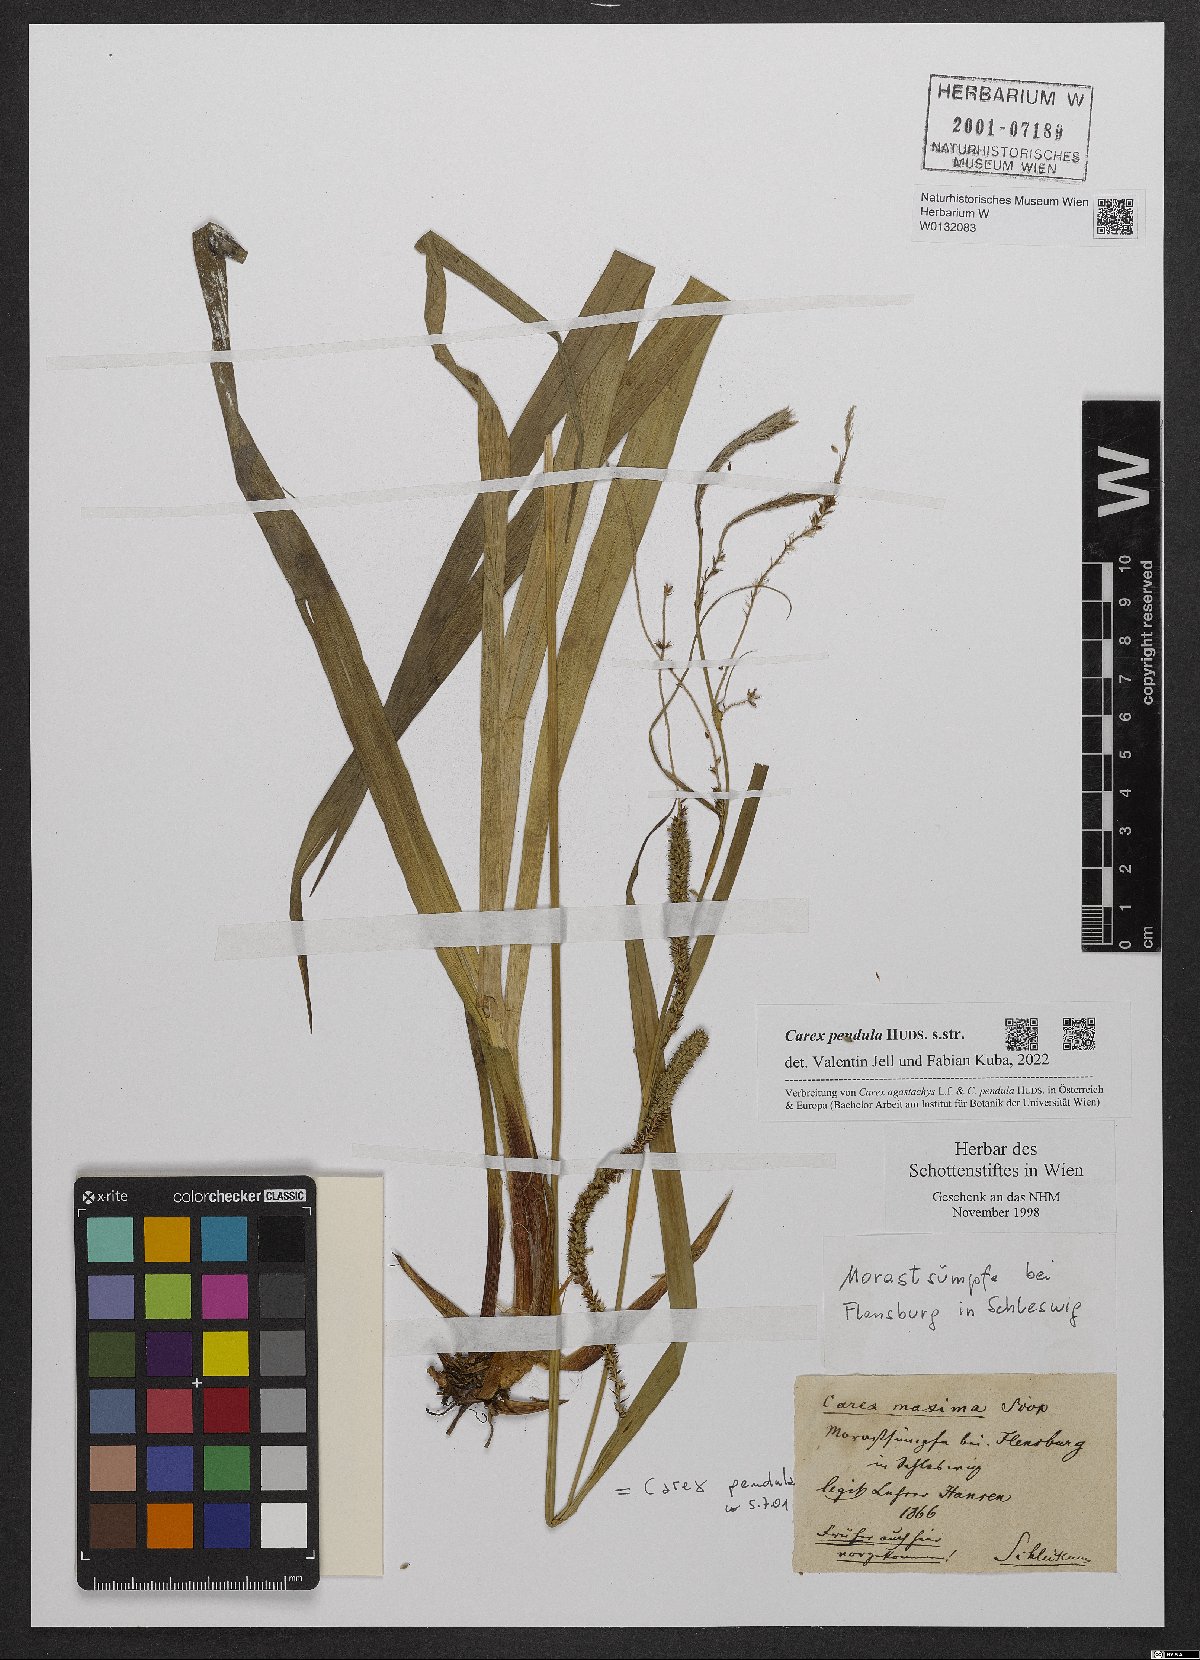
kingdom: Plantae
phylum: Tracheophyta
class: Liliopsida
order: Poales
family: Cyperaceae
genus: Carex
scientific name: Carex pendula
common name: Pendulous sedge
